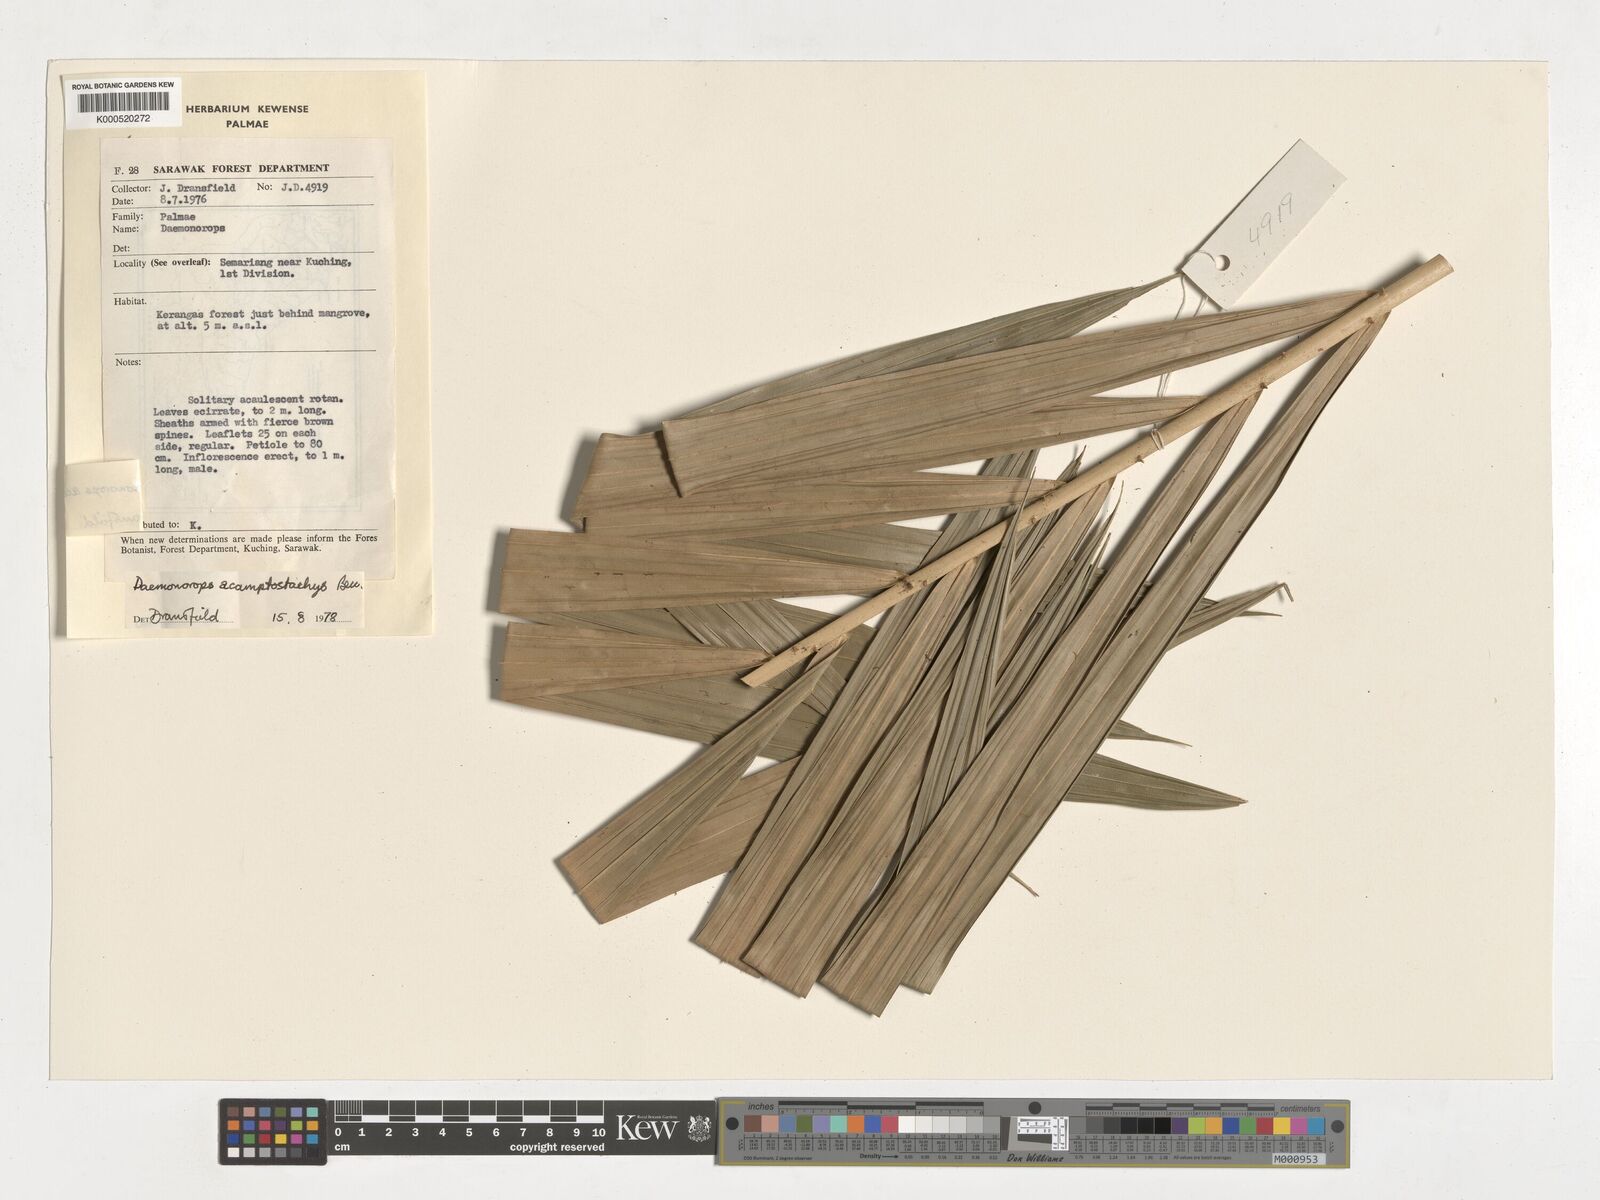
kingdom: Plantae
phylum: Tracheophyta
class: Liliopsida
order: Arecales
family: Arecaceae
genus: Calamus
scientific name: Calamus acamptostachys
